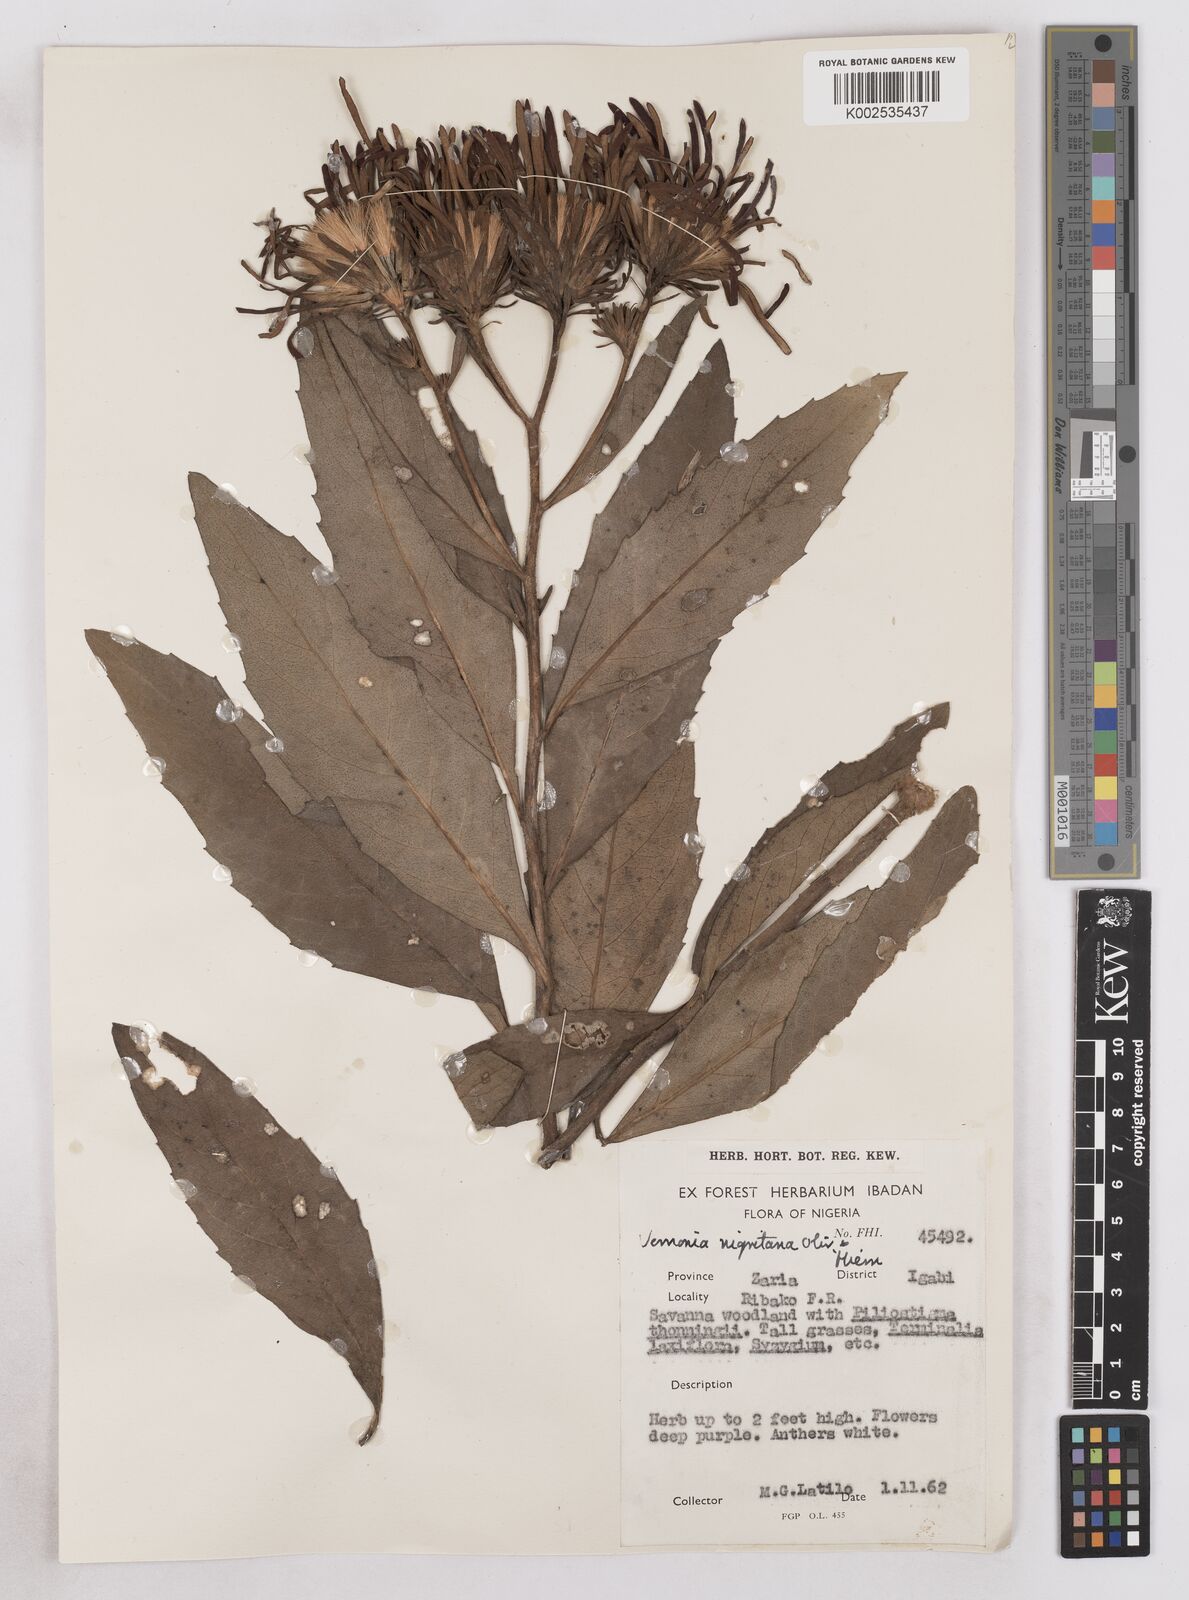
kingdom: Plantae
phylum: Tracheophyta
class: Magnoliopsida
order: Asterales
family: Asteraceae
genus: Linzia
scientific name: Linzia nigritiana
